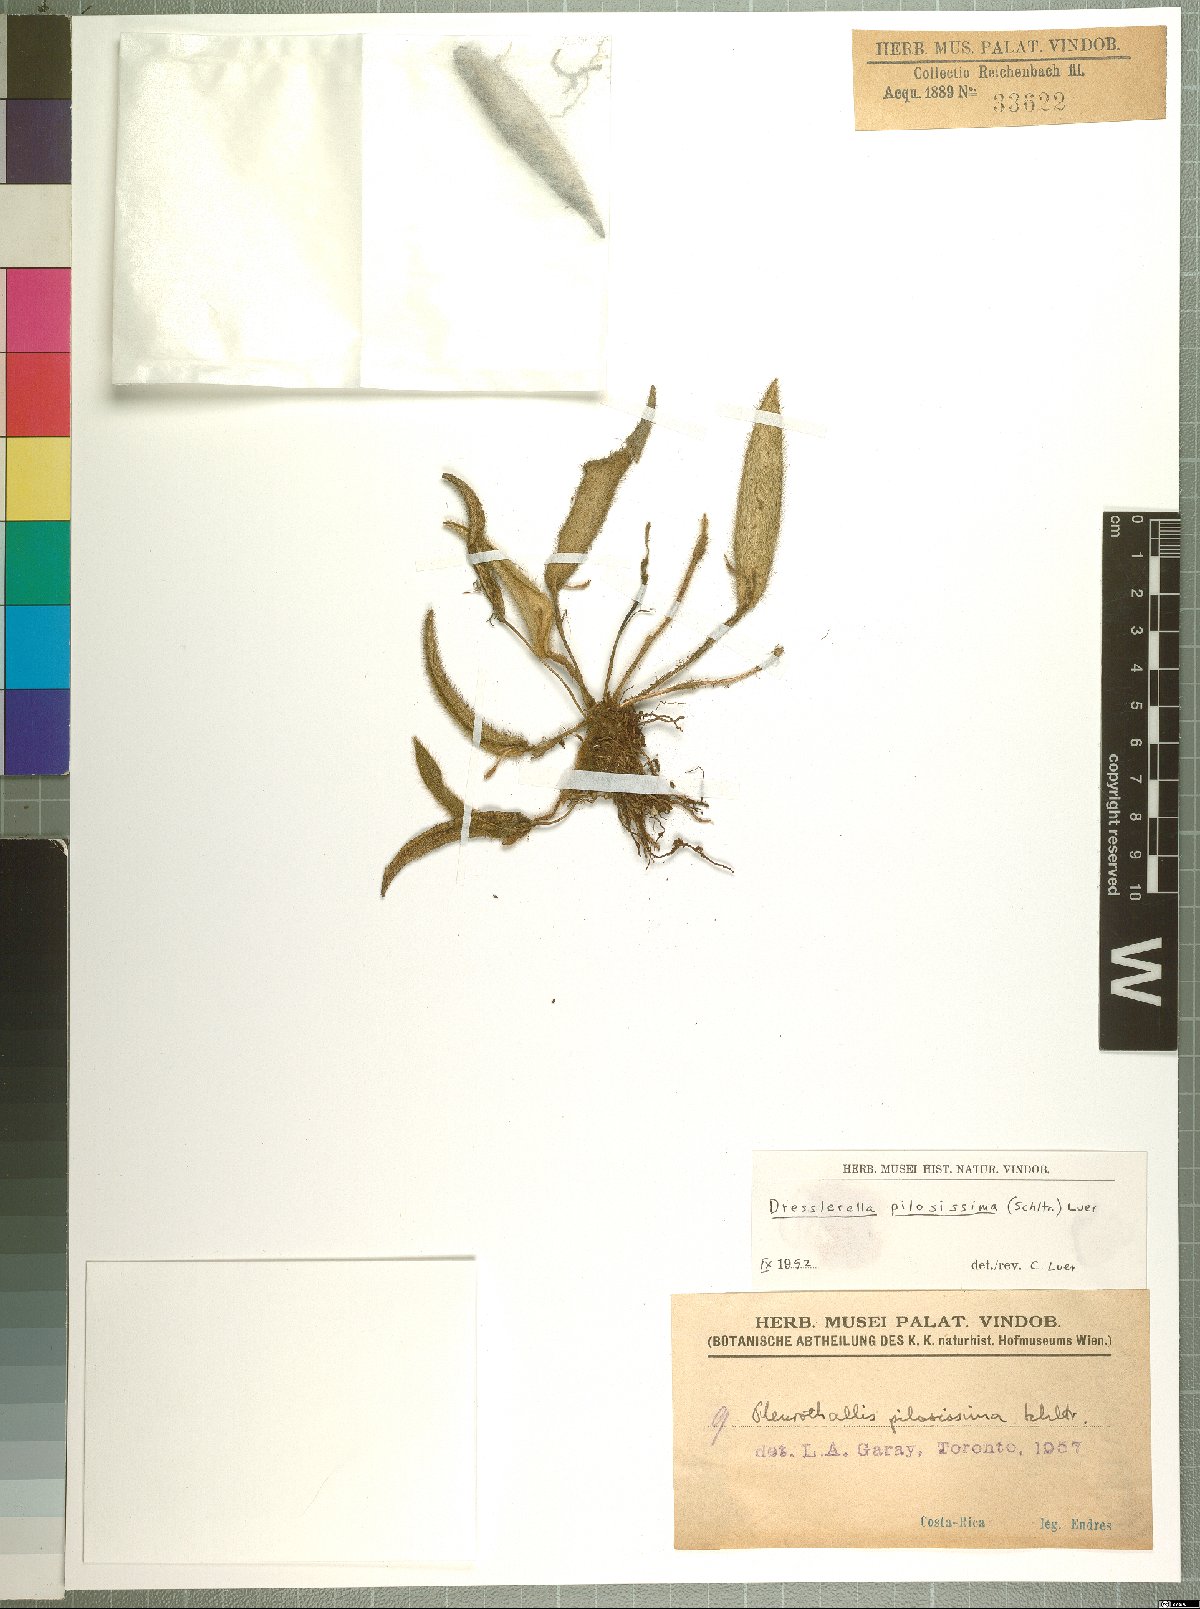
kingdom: Plantae
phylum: Tracheophyta
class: Liliopsida
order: Asparagales
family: Orchidaceae
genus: Dresslerella
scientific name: Dresslerella pilosissima
